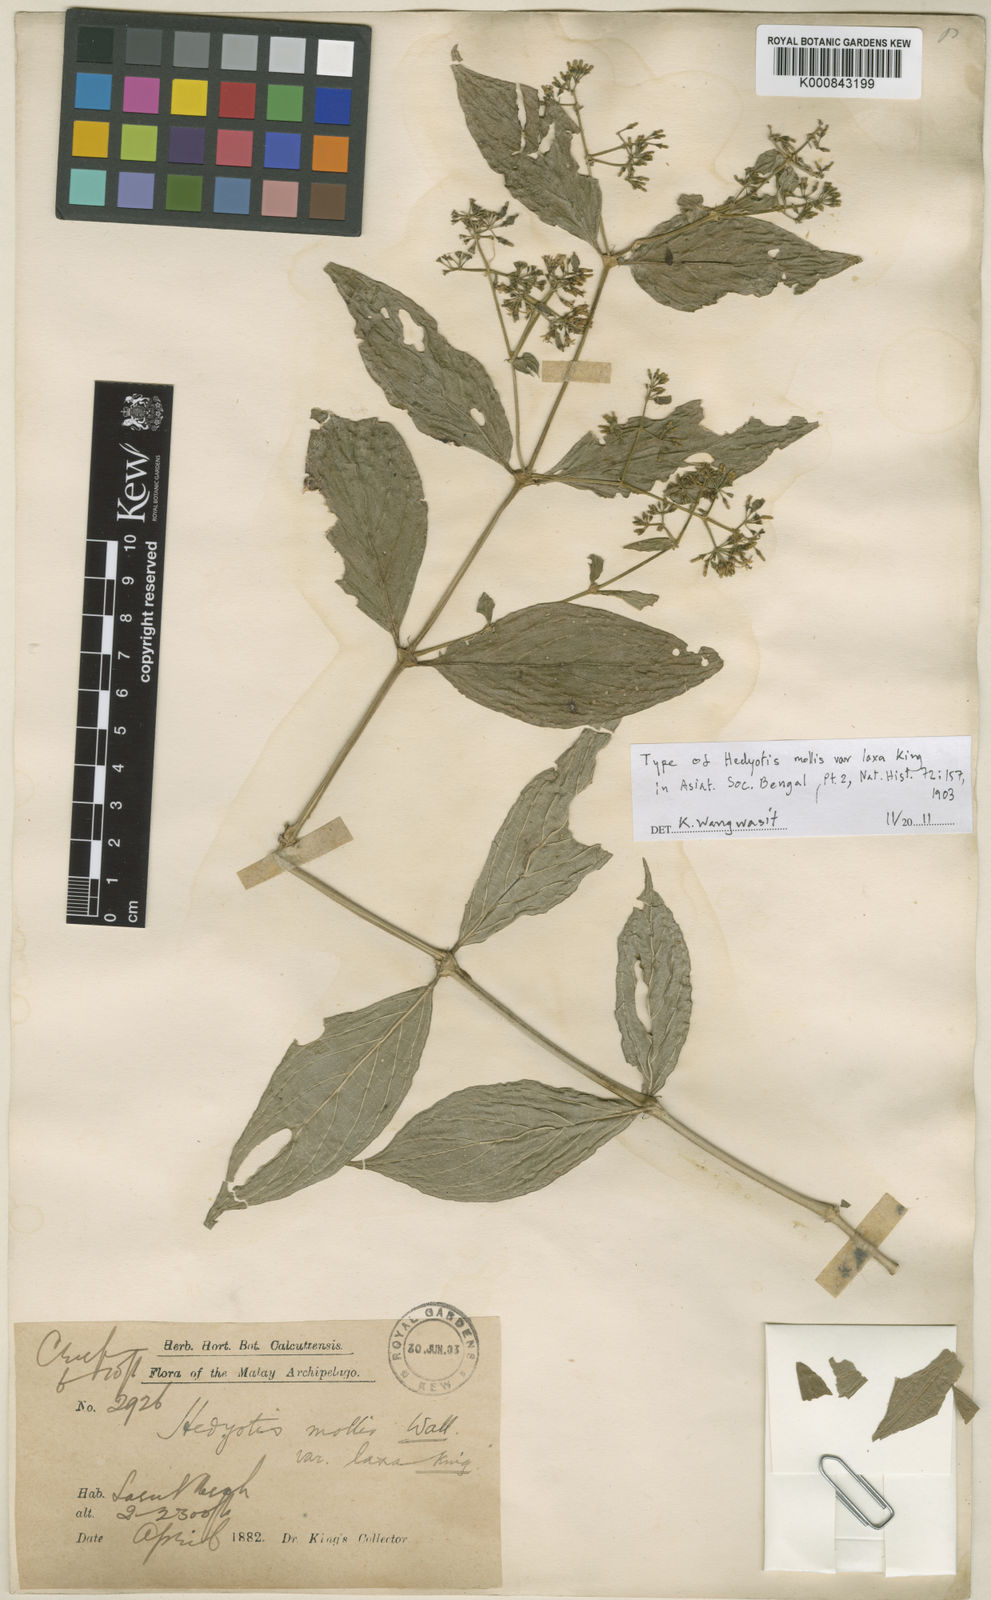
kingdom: Plantae
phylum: Tracheophyta
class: Magnoliopsida
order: Gentianales
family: Rubiaceae
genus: Oldenlandia
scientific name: Oldenlandia mollis
